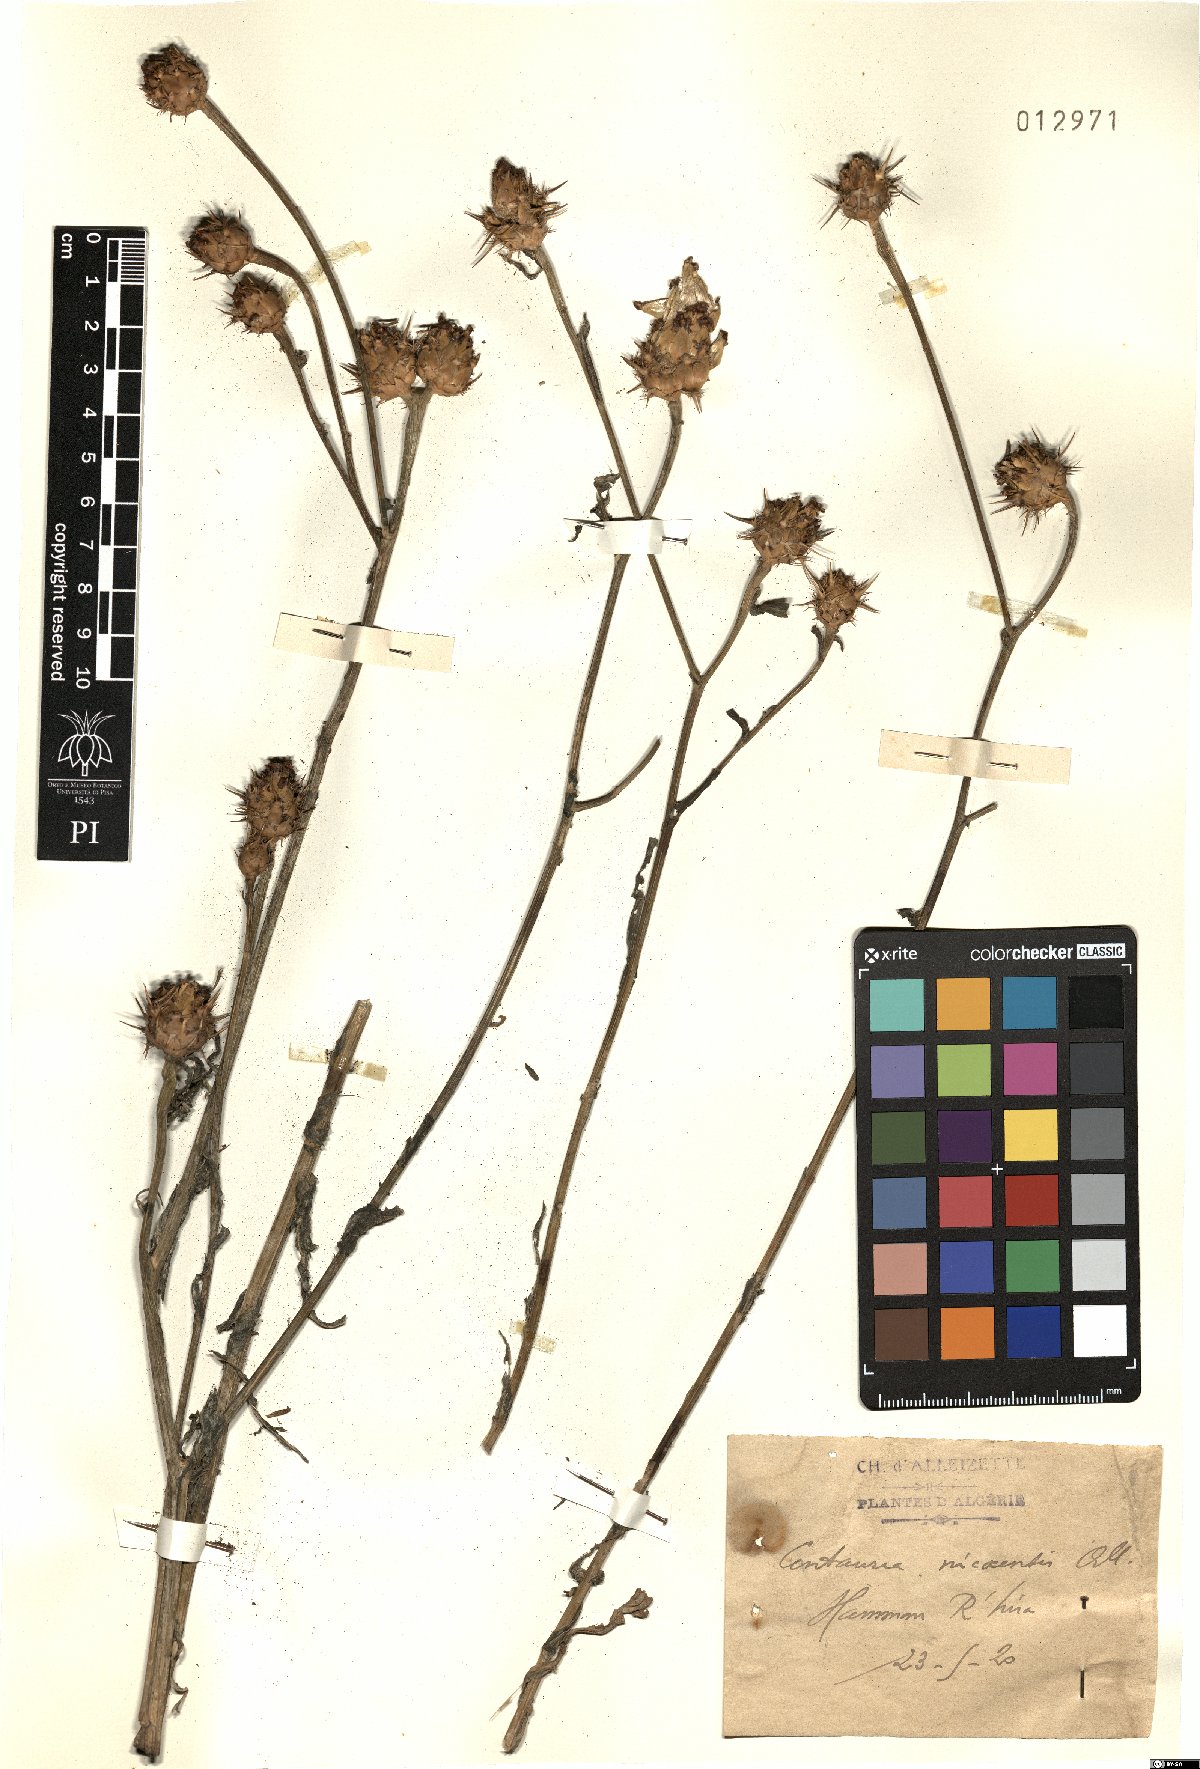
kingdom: Plantae
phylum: Tracheophyta
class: Magnoliopsida
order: Asterales
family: Asteraceae
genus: Centaurea
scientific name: Centaurea sicula
